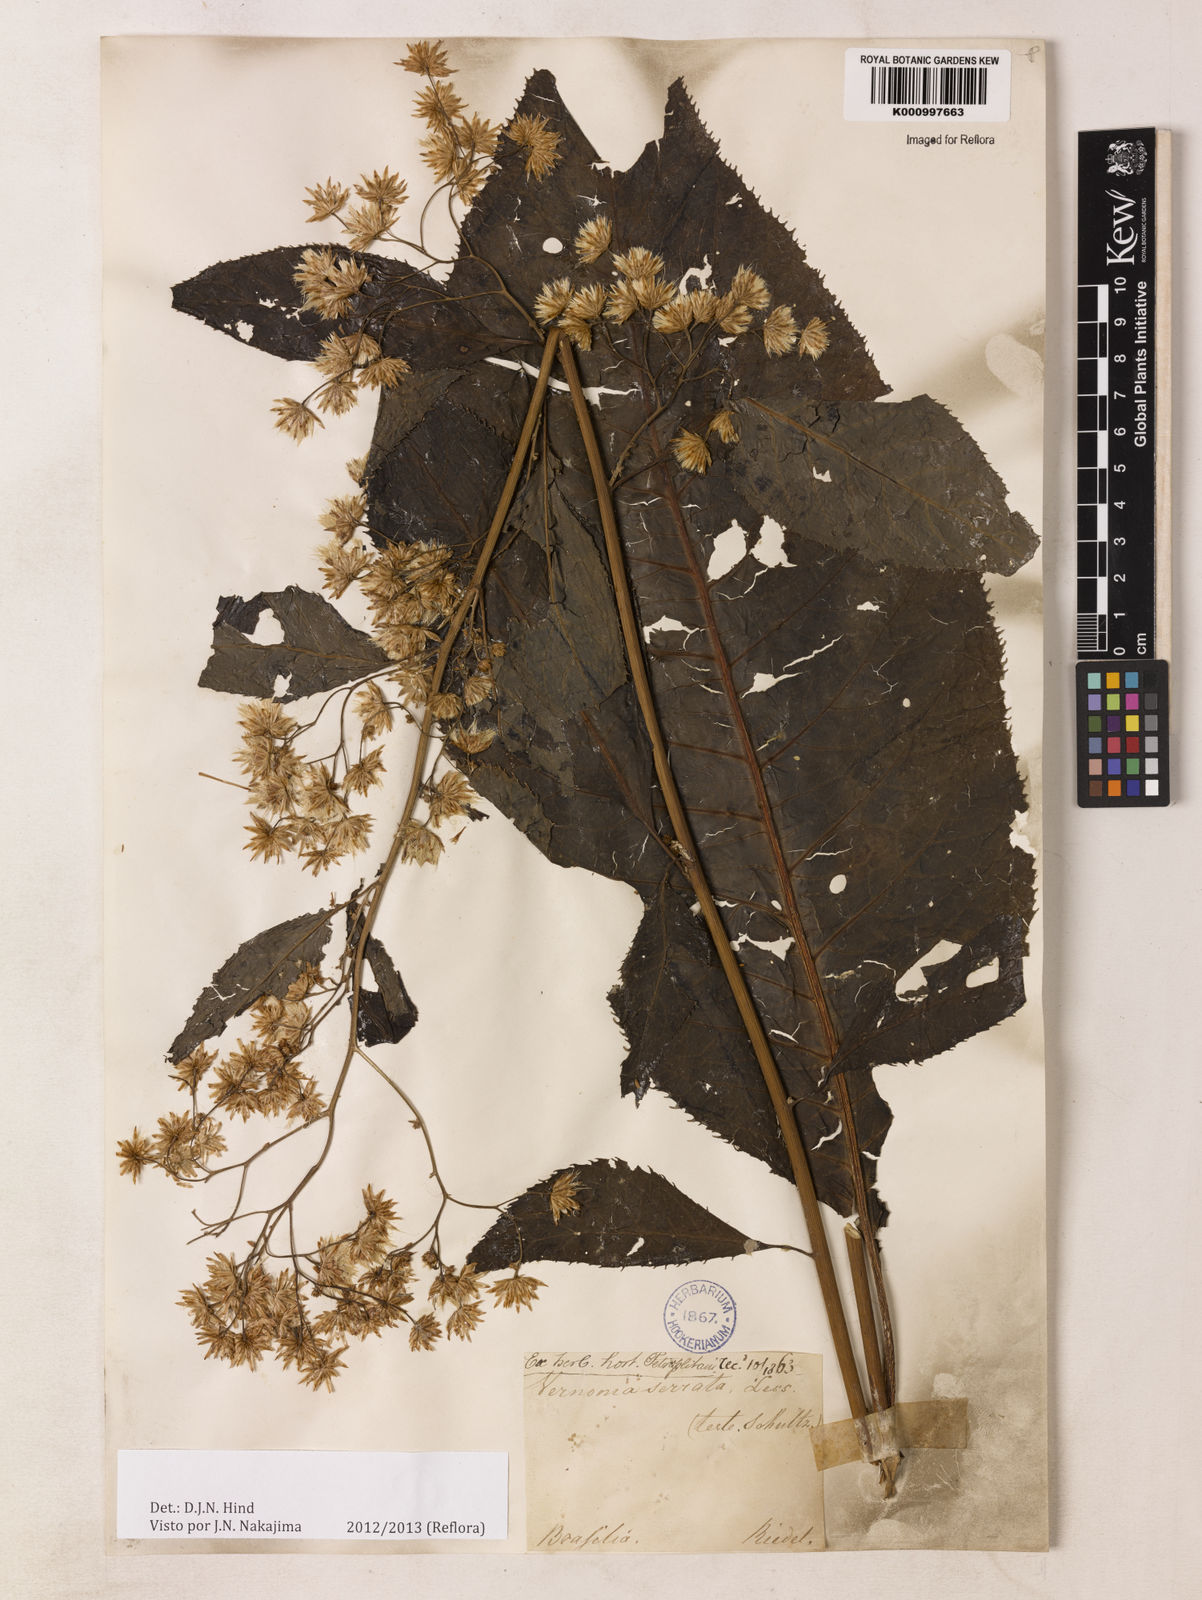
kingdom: Plantae
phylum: Tracheophyta
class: Magnoliopsida
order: Asterales
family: Asteraceae
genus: Dasyanthina
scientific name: Dasyanthina serrata
